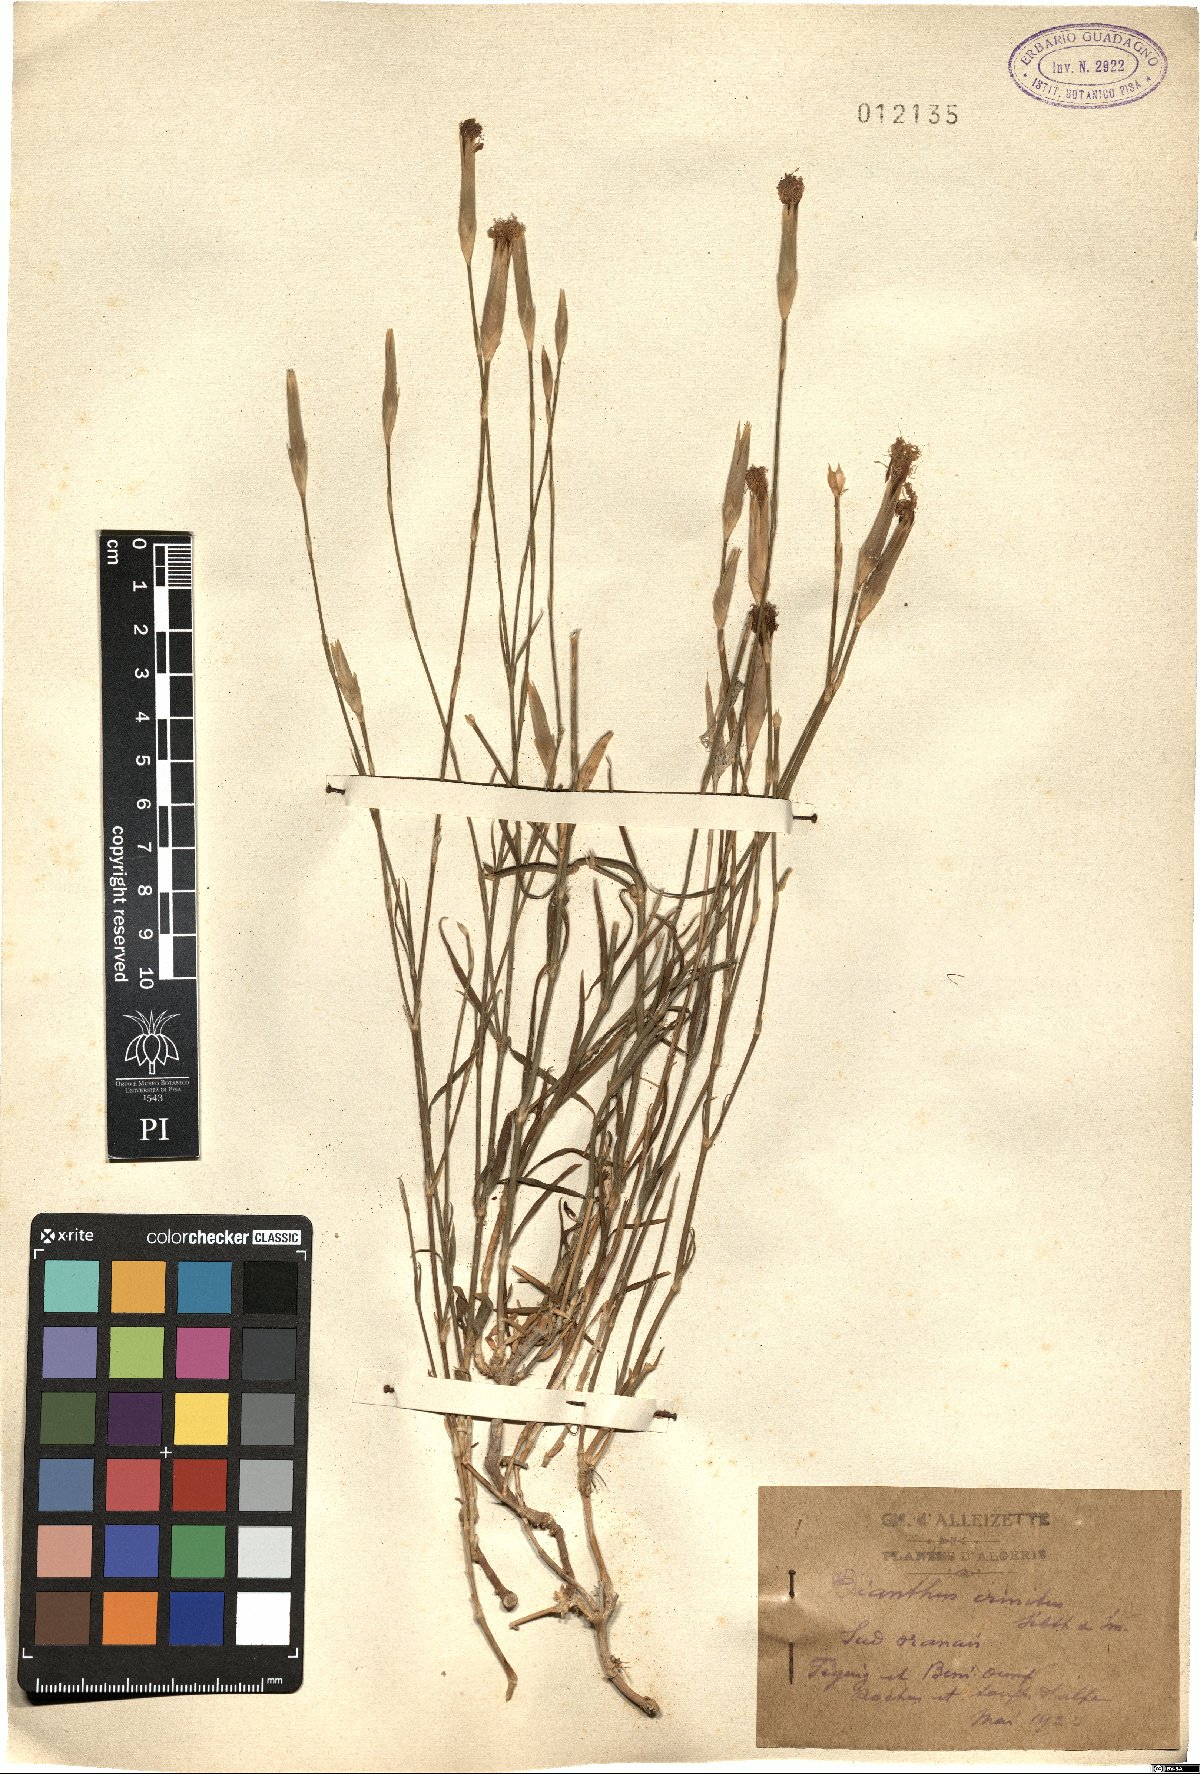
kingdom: Plantae
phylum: Tracheophyta
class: Magnoliopsida
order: Caryophyllales
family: Caryophyllaceae
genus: Dianthus
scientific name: Dianthus crinitus
